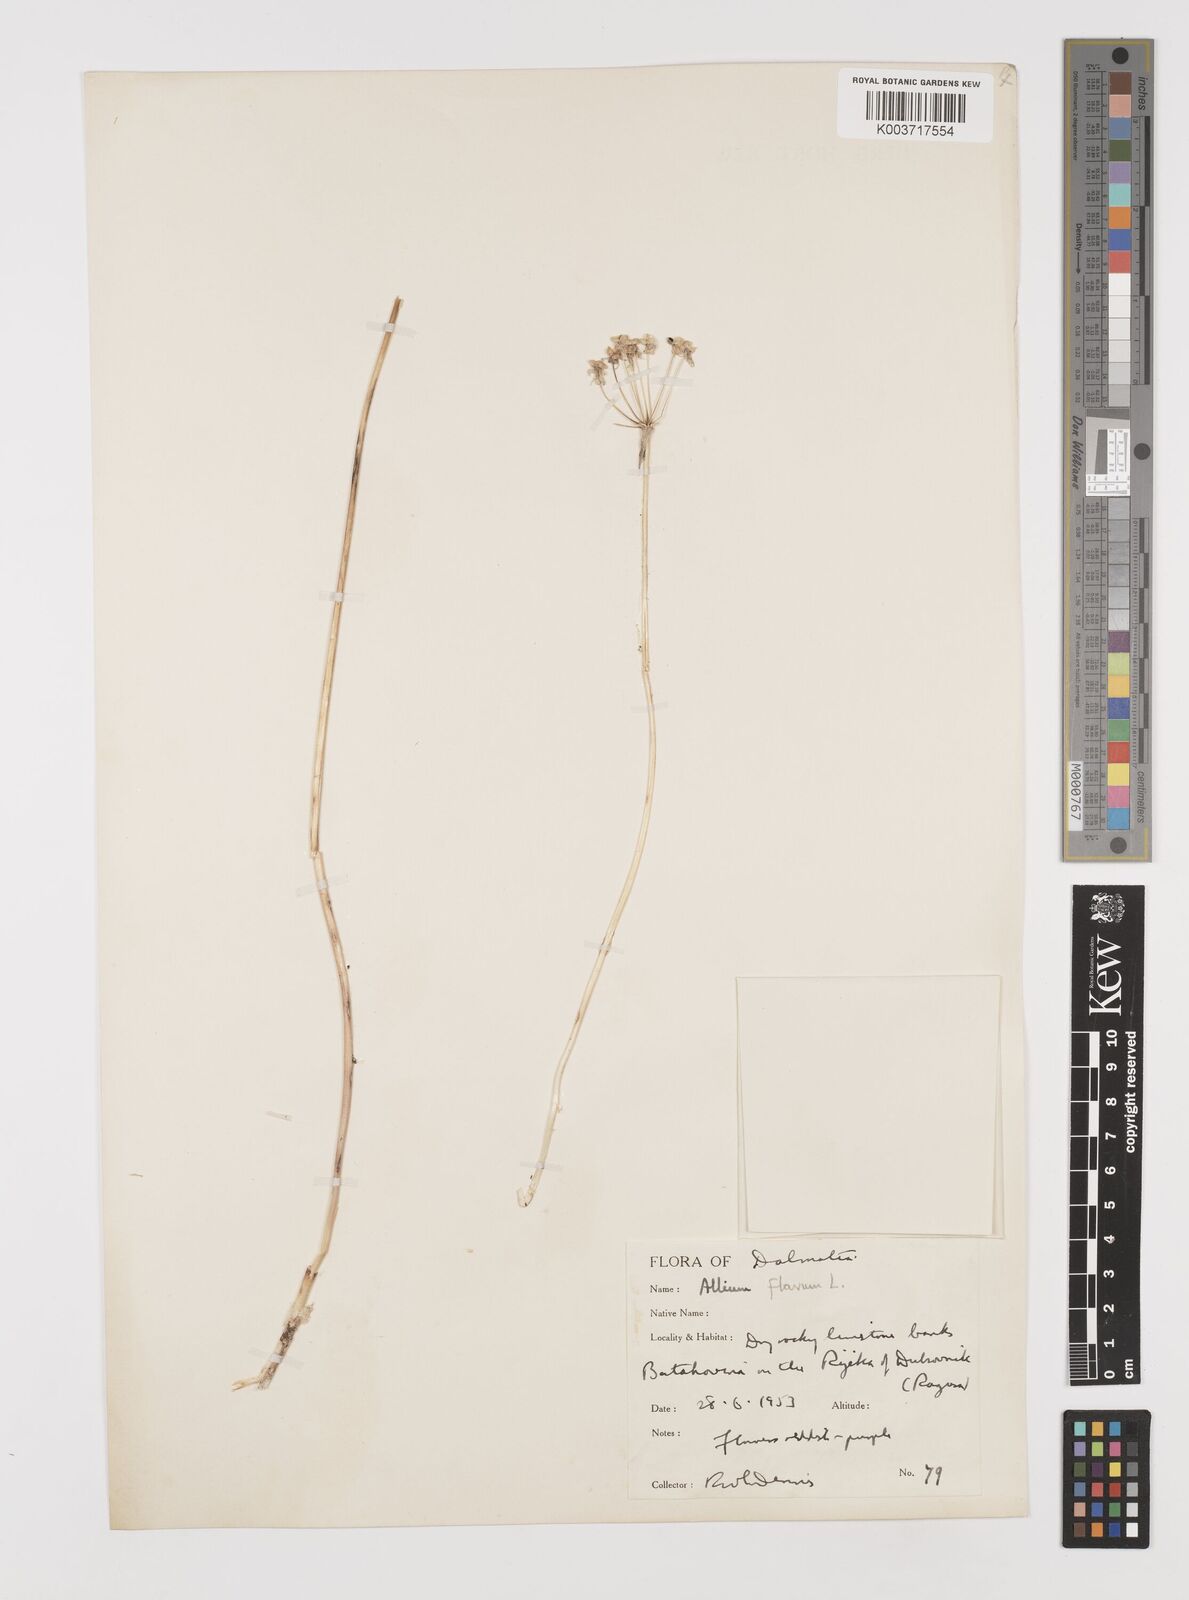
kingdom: Plantae
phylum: Tracheophyta
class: Liliopsida
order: Asparagales
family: Amaryllidaceae
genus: Allium
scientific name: Allium
